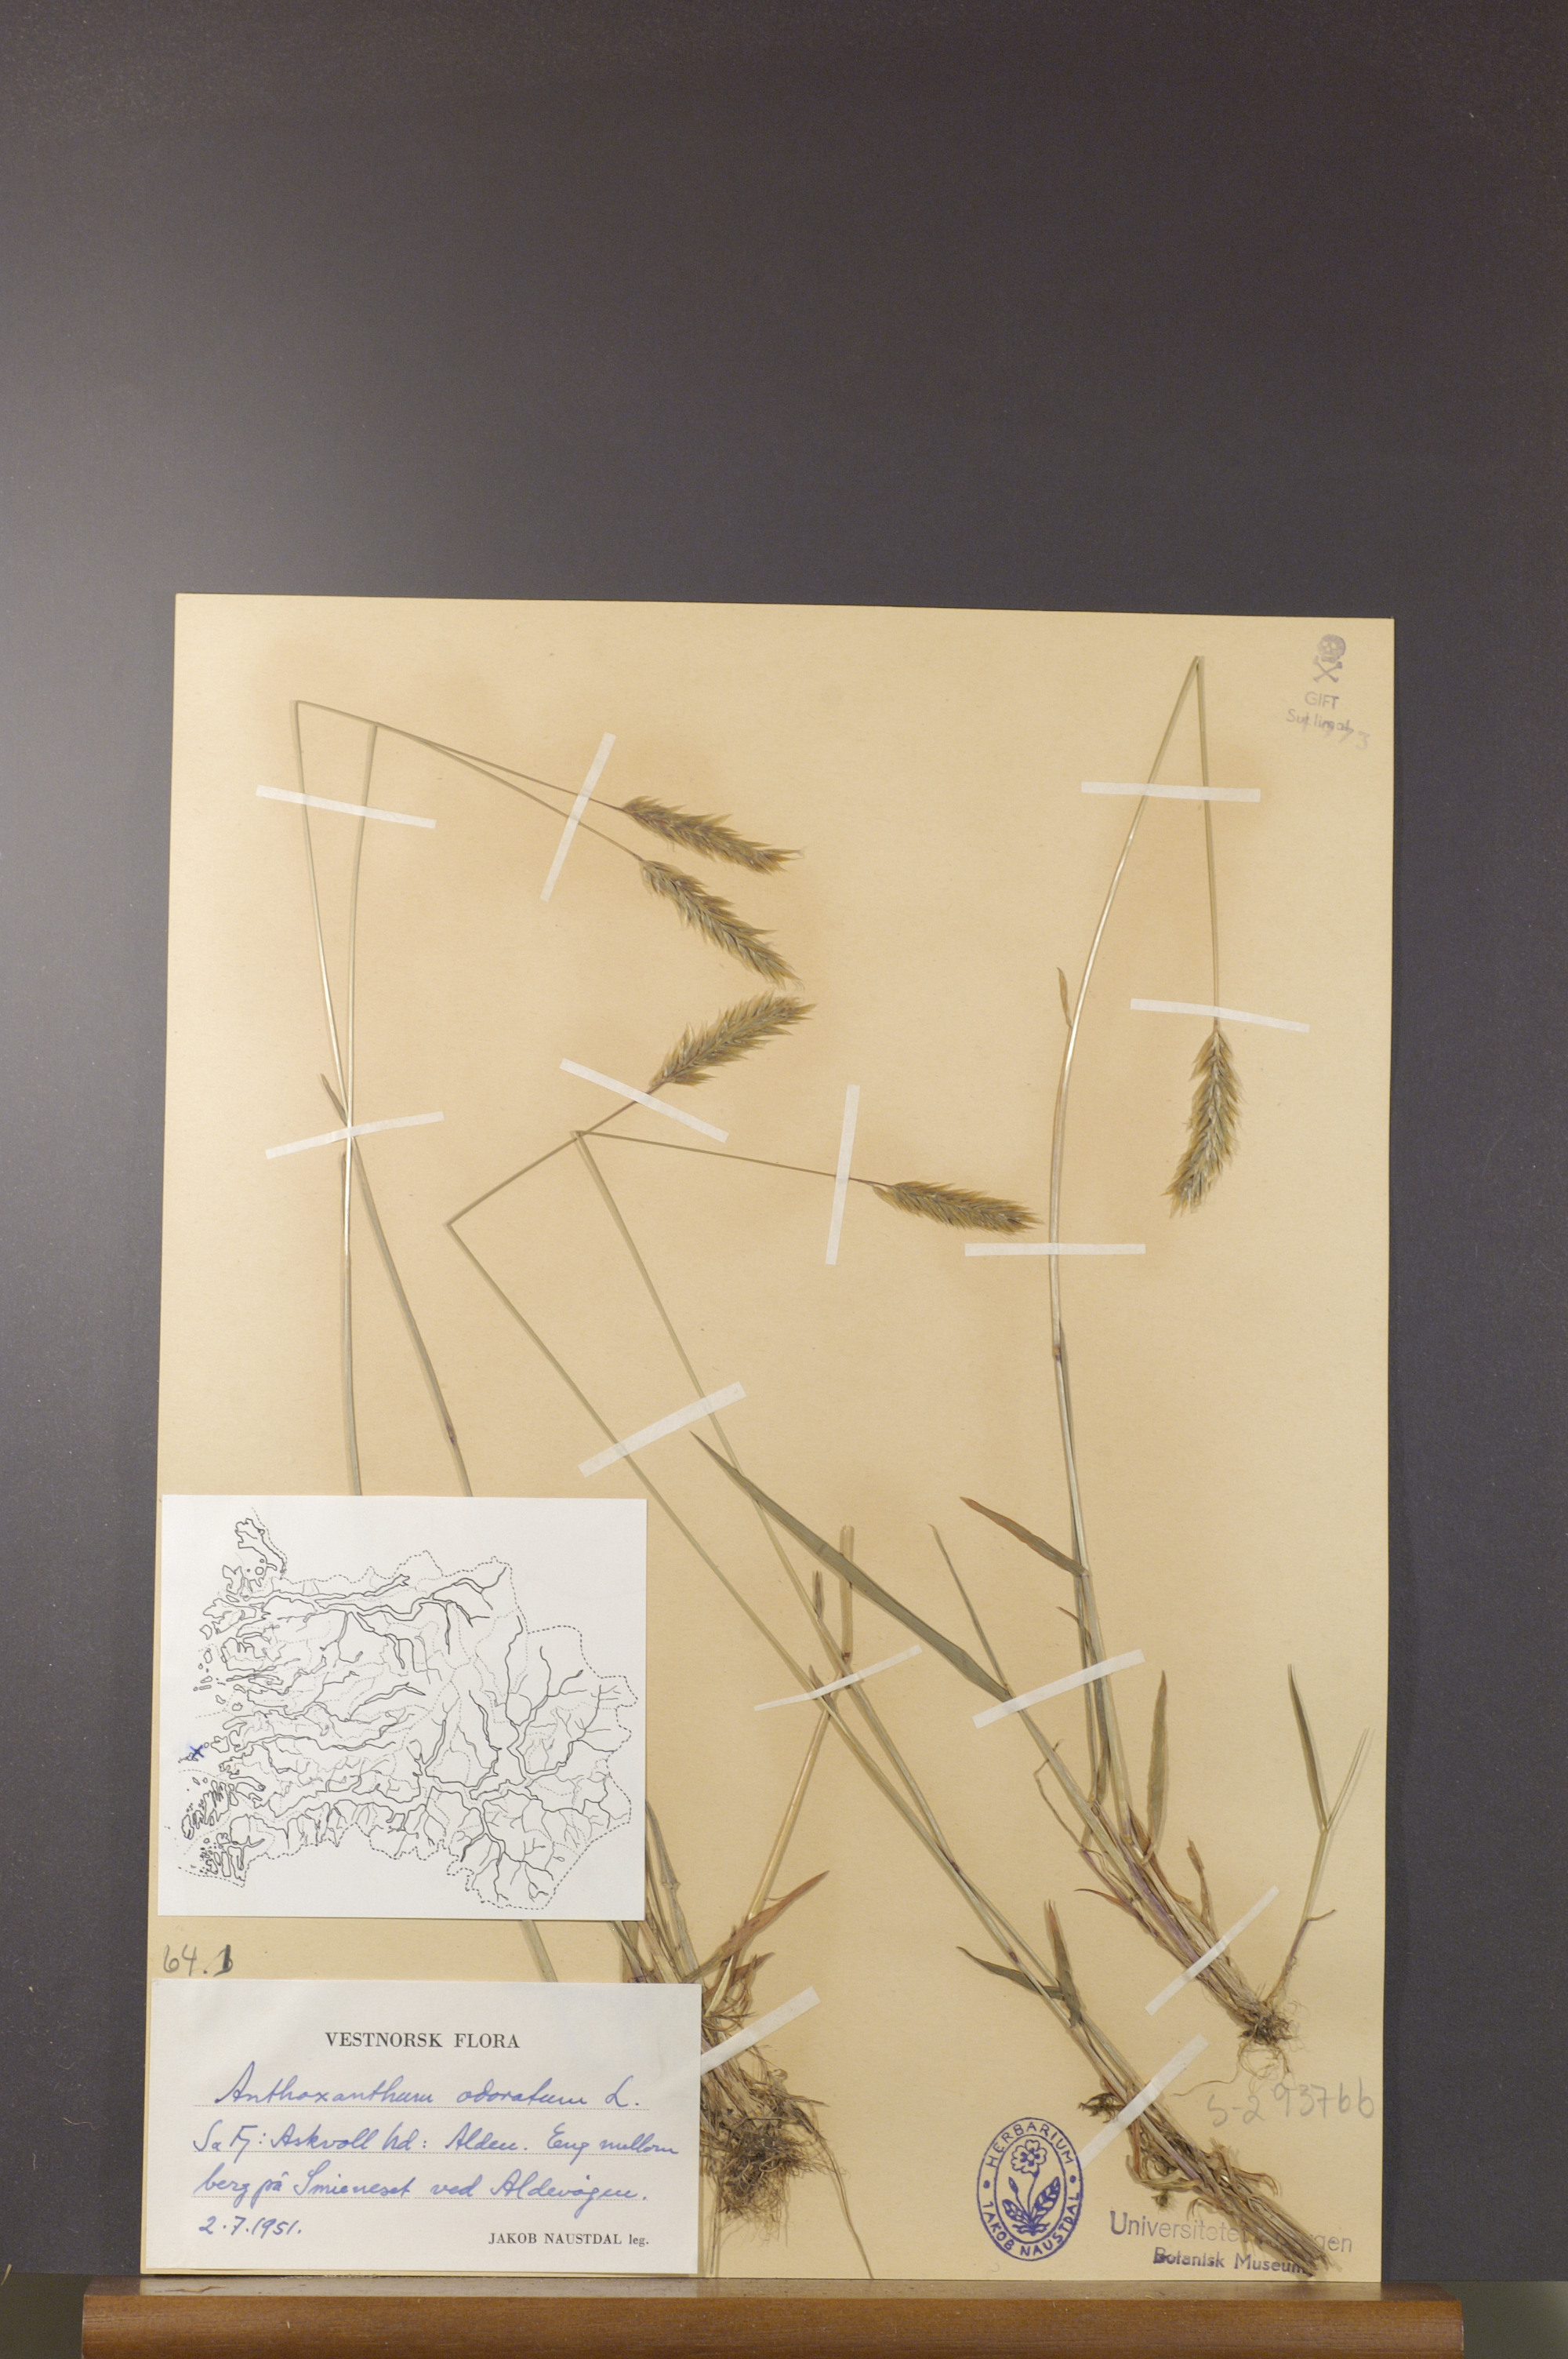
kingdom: Plantae
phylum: Tracheophyta
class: Liliopsida
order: Poales
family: Poaceae
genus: Anthoxanthum
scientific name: Anthoxanthum odoratum
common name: Sweet vernalgrass
